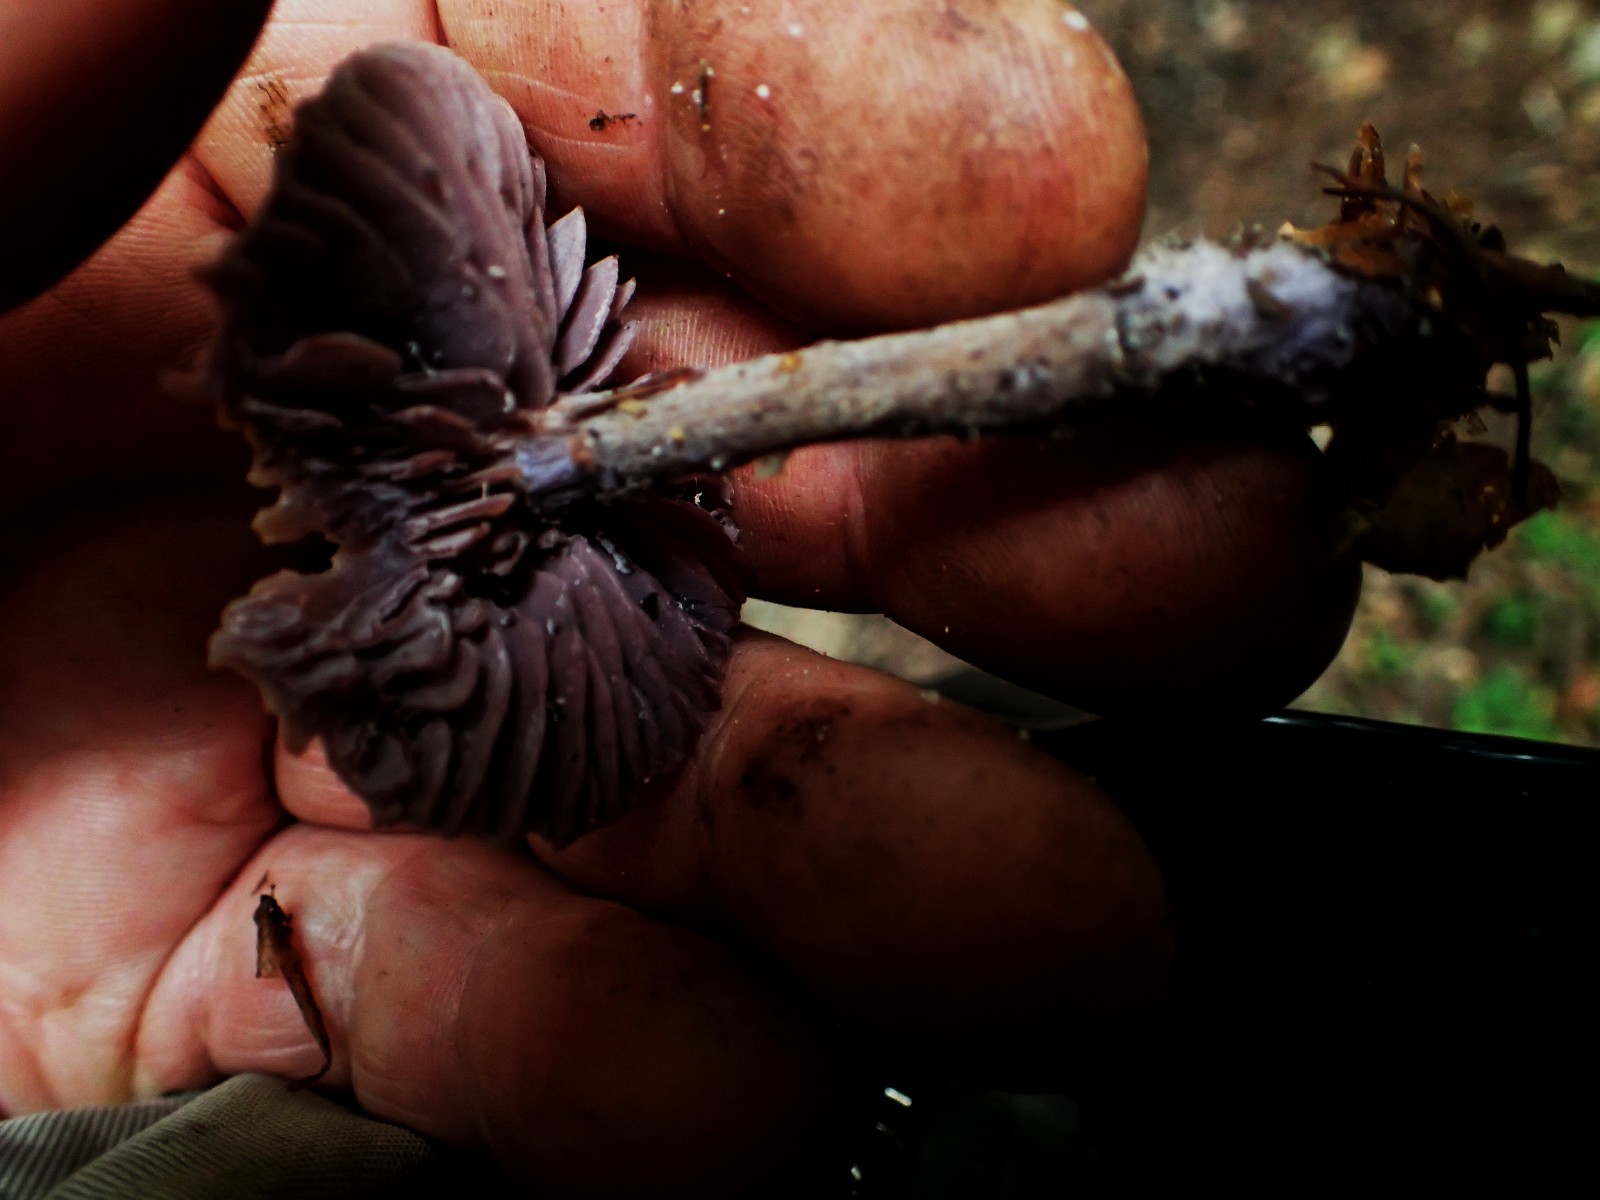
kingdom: Fungi
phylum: Basidiomycota
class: Agaricomycetes
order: Agaricales
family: Hydnangiaceae
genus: Laccaria
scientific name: Laccaria
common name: ametysthat
